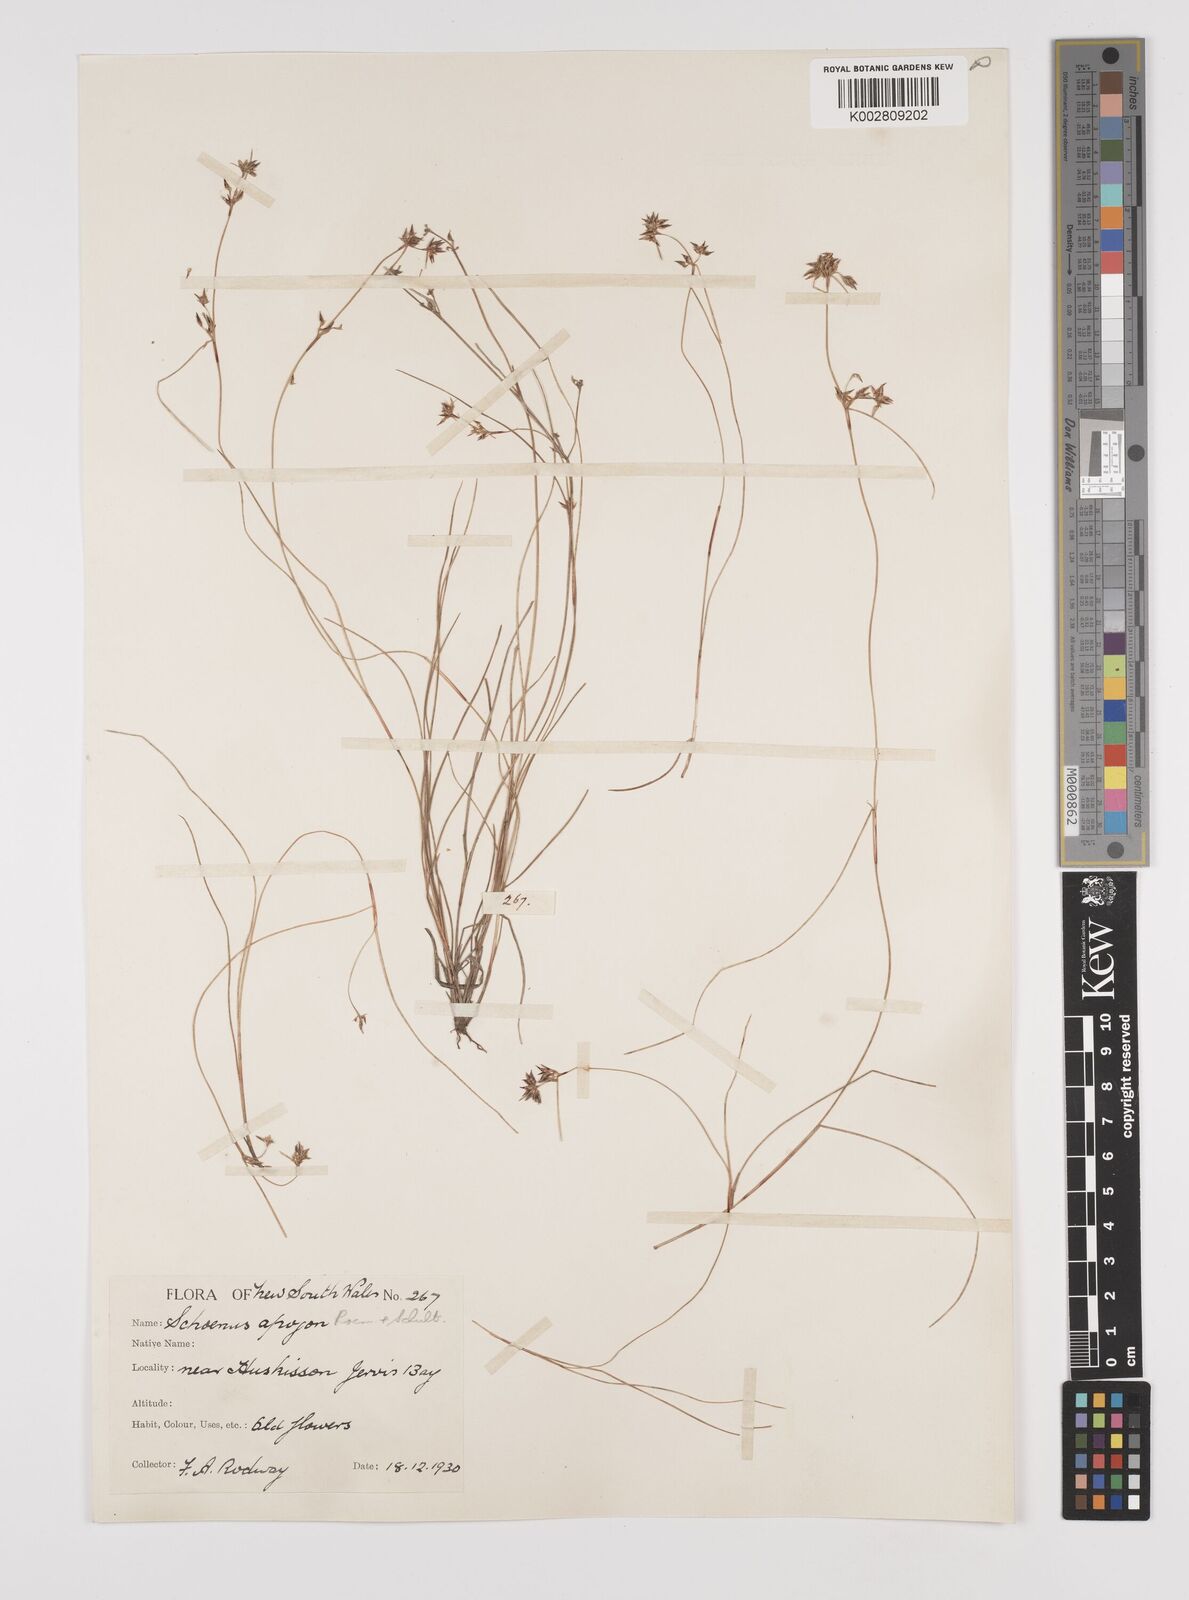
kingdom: Plantae
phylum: Tracheophyta
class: Liliopsida
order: Poales
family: Cyperaceae
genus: Schoenus
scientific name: Schoenus apogon
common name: Smooth bogrush
